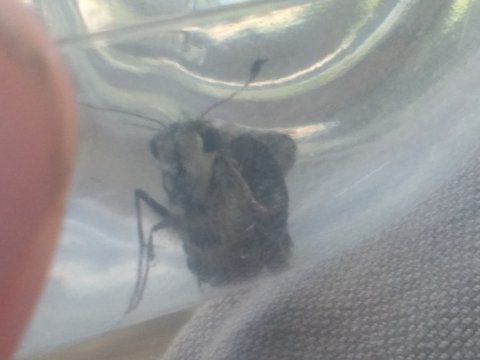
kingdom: Animalia
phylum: Arthropoda
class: Insecta
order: Lepidoptera
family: Hesperiidae
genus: Polites
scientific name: Polites sabuleti
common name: Draco Skipper
